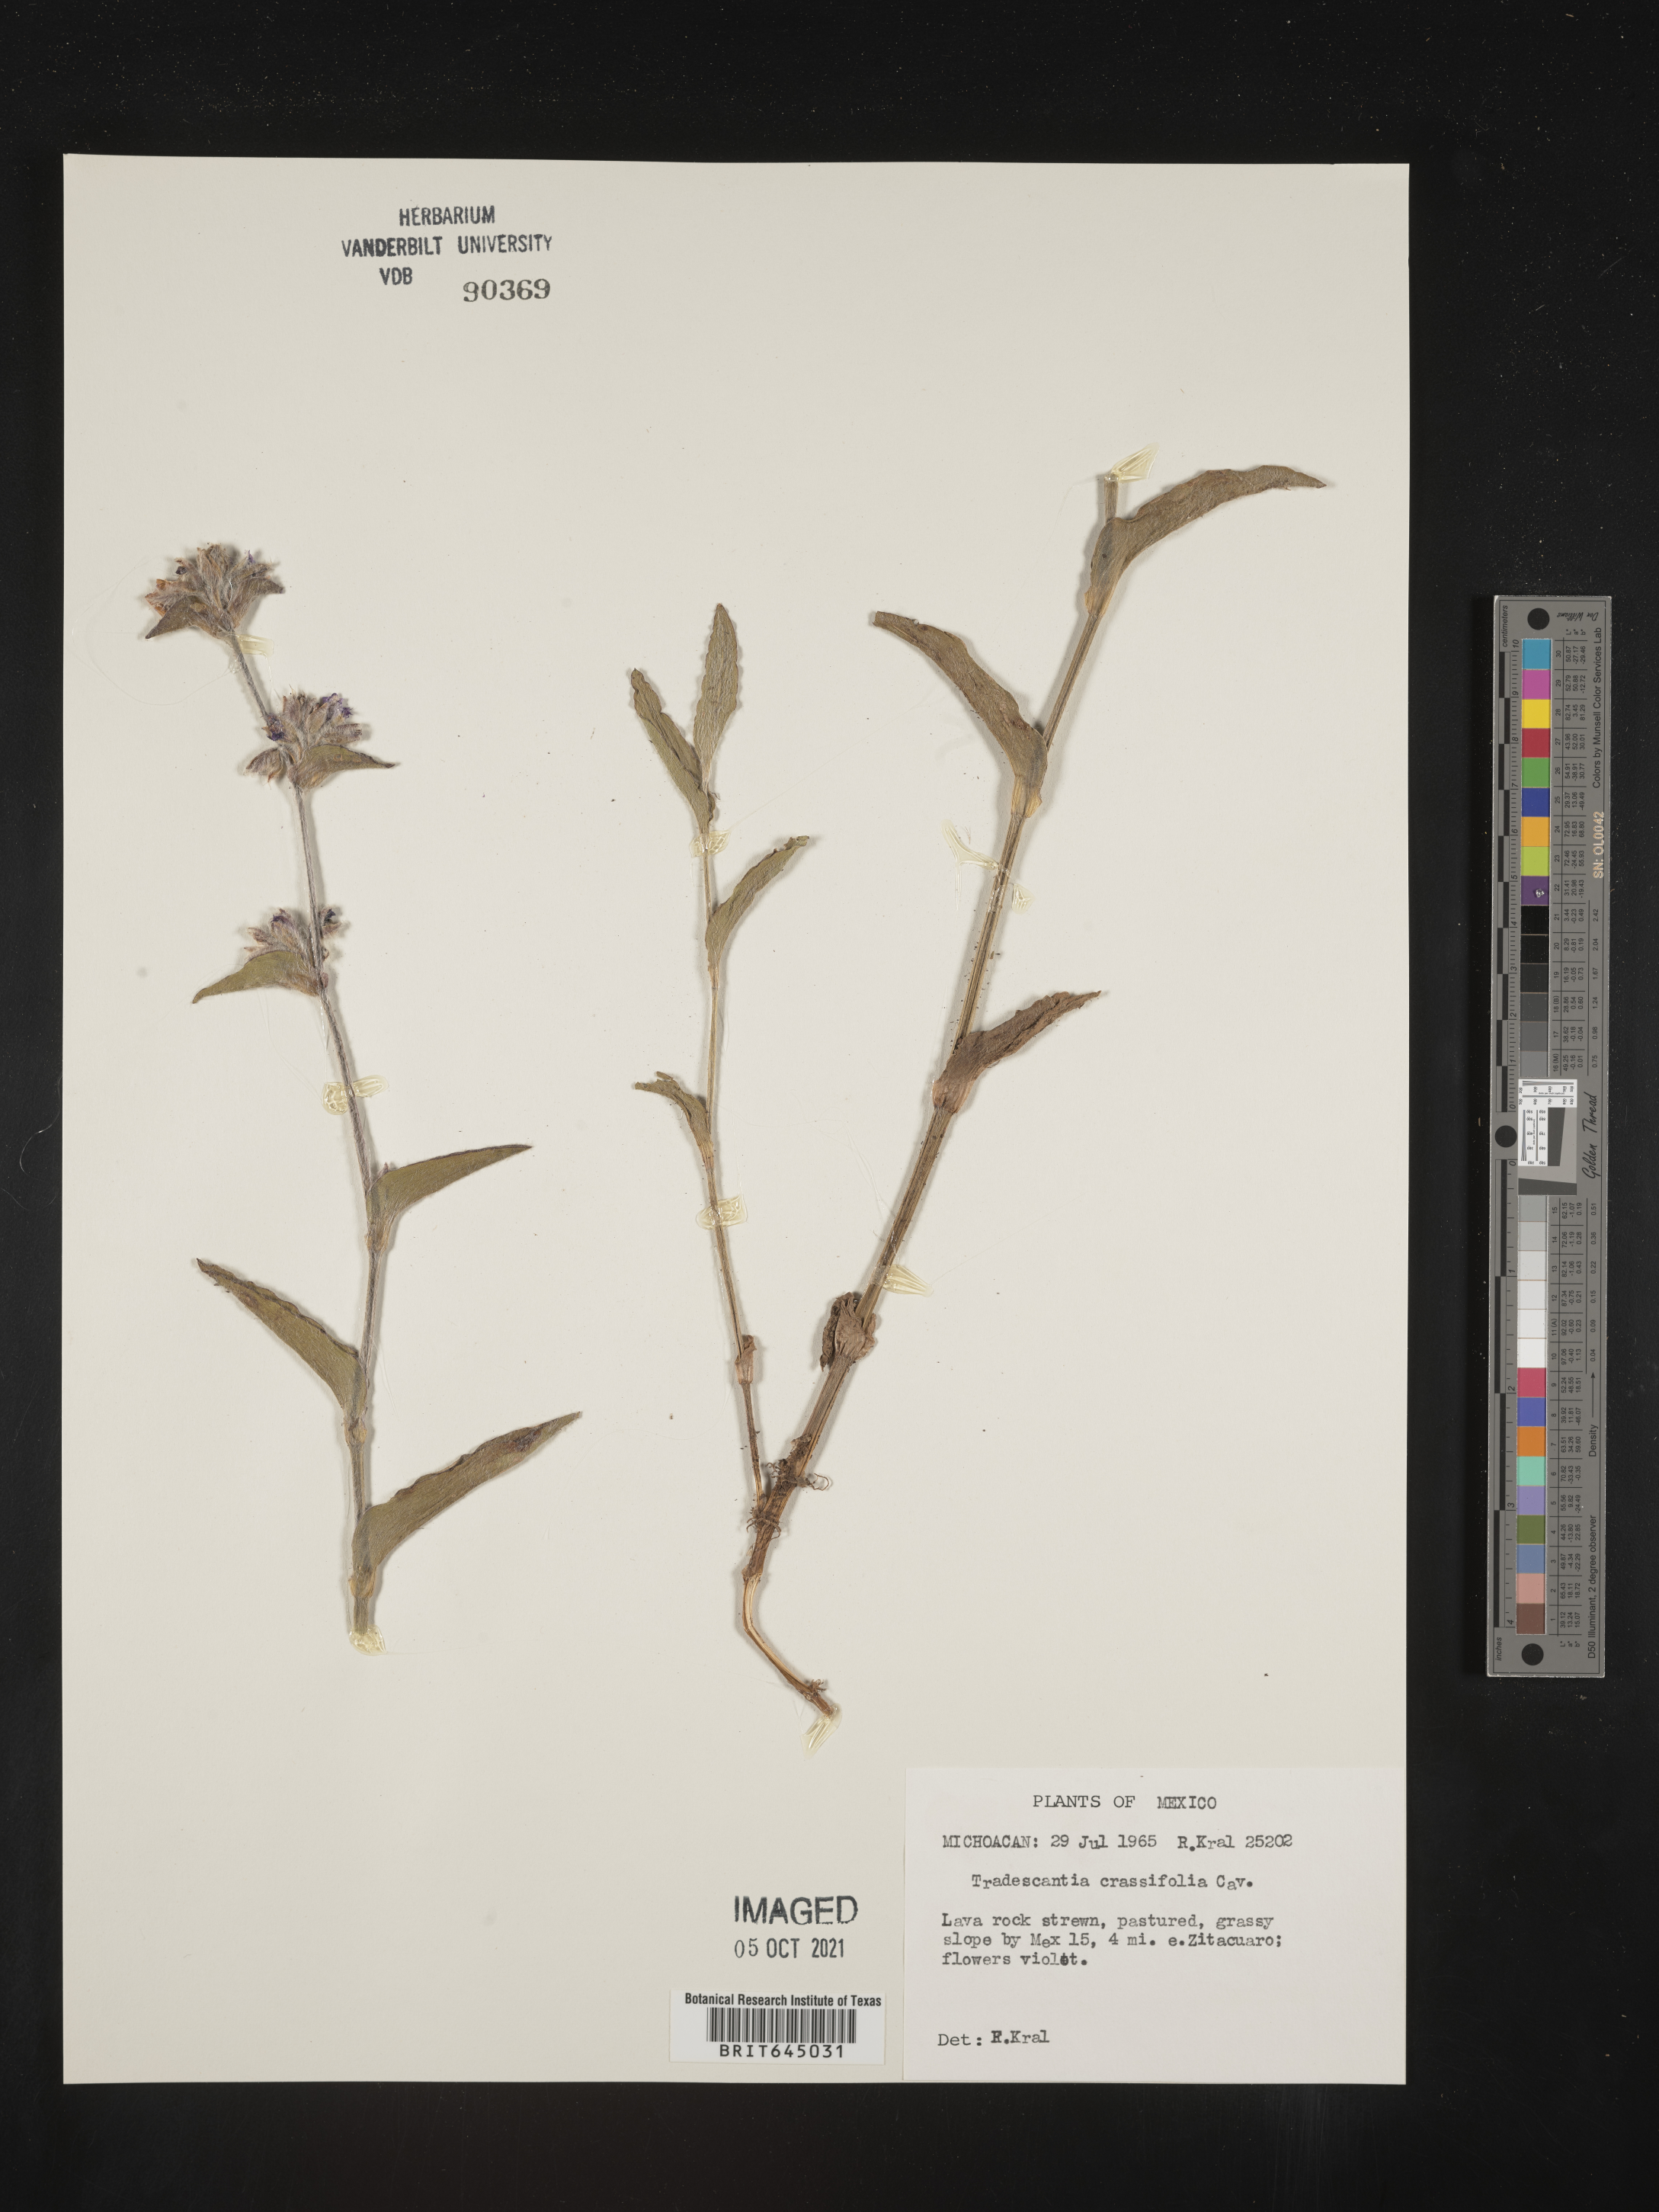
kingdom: Plantae
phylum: Tracheophyta
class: Liliopsida
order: Commelinales
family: Commelinaceae
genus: Tradescantia
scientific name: Tradescantia
